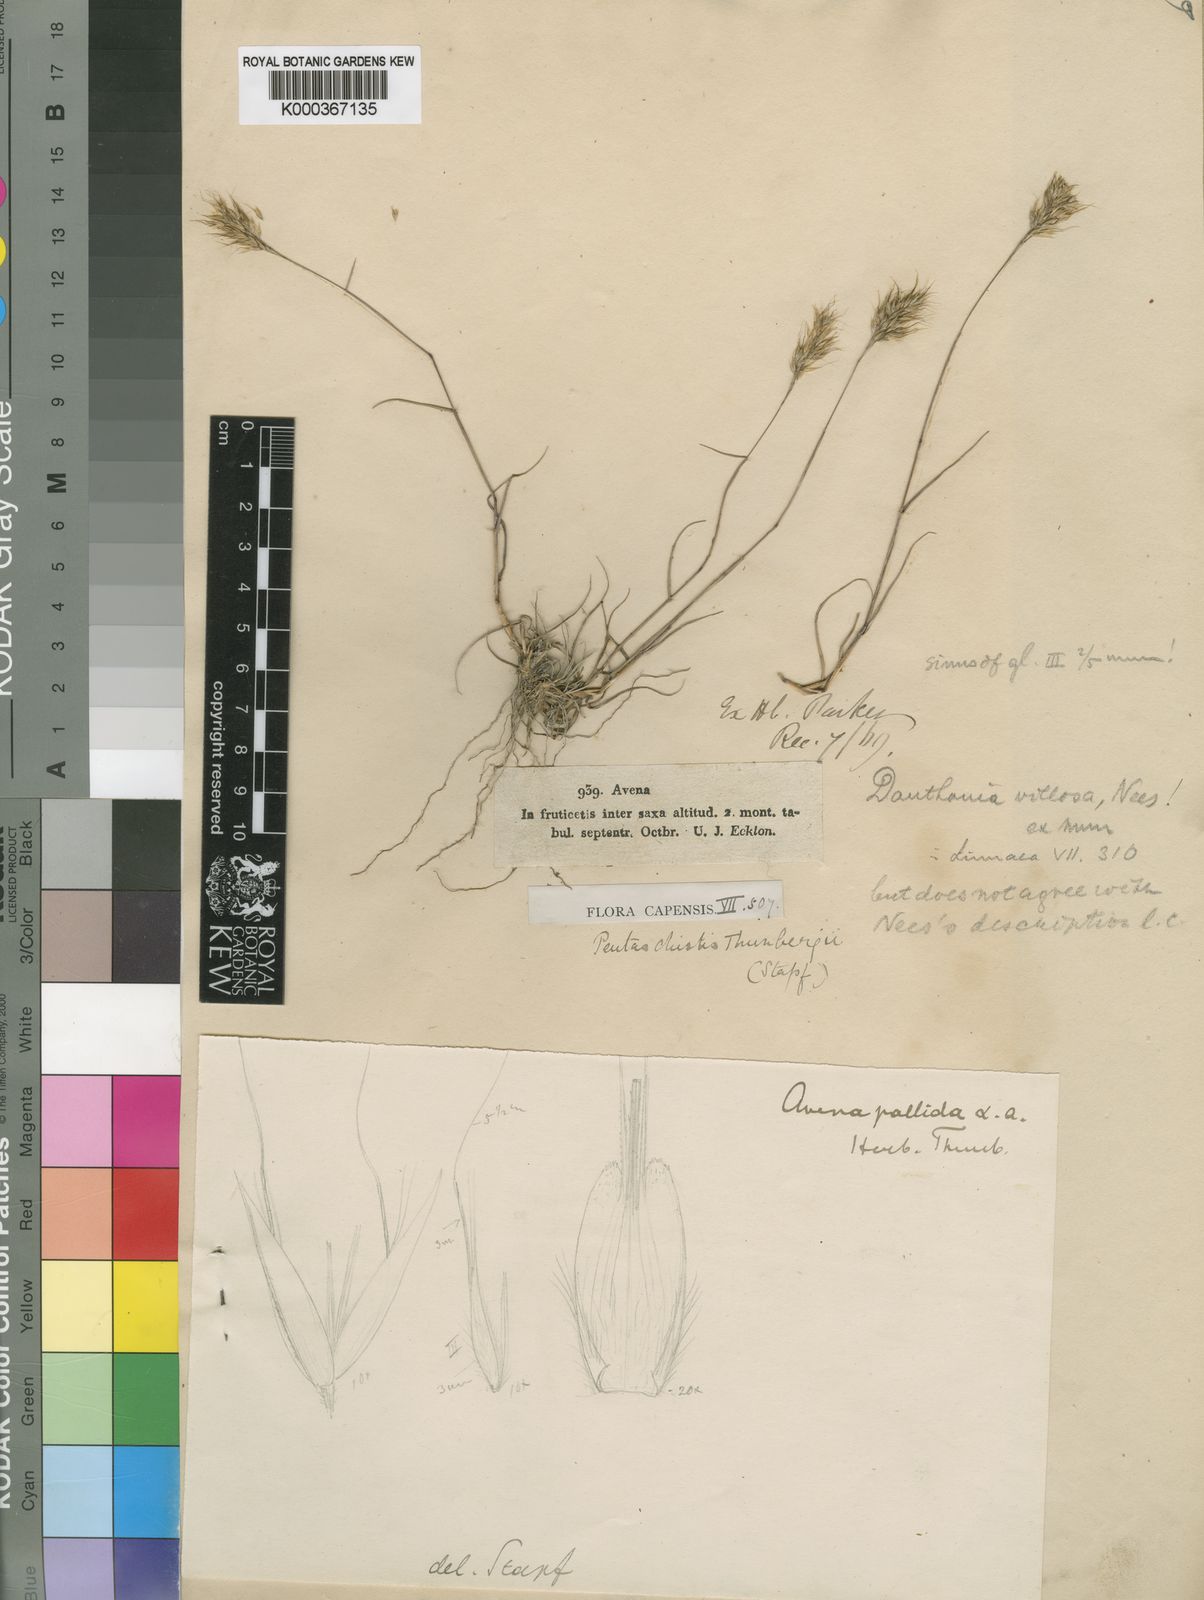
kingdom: Plantae
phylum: Tracheophyta
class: Liliopsida
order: Poales
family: Poaceae
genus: Pentameris
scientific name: Pentameris triseta
